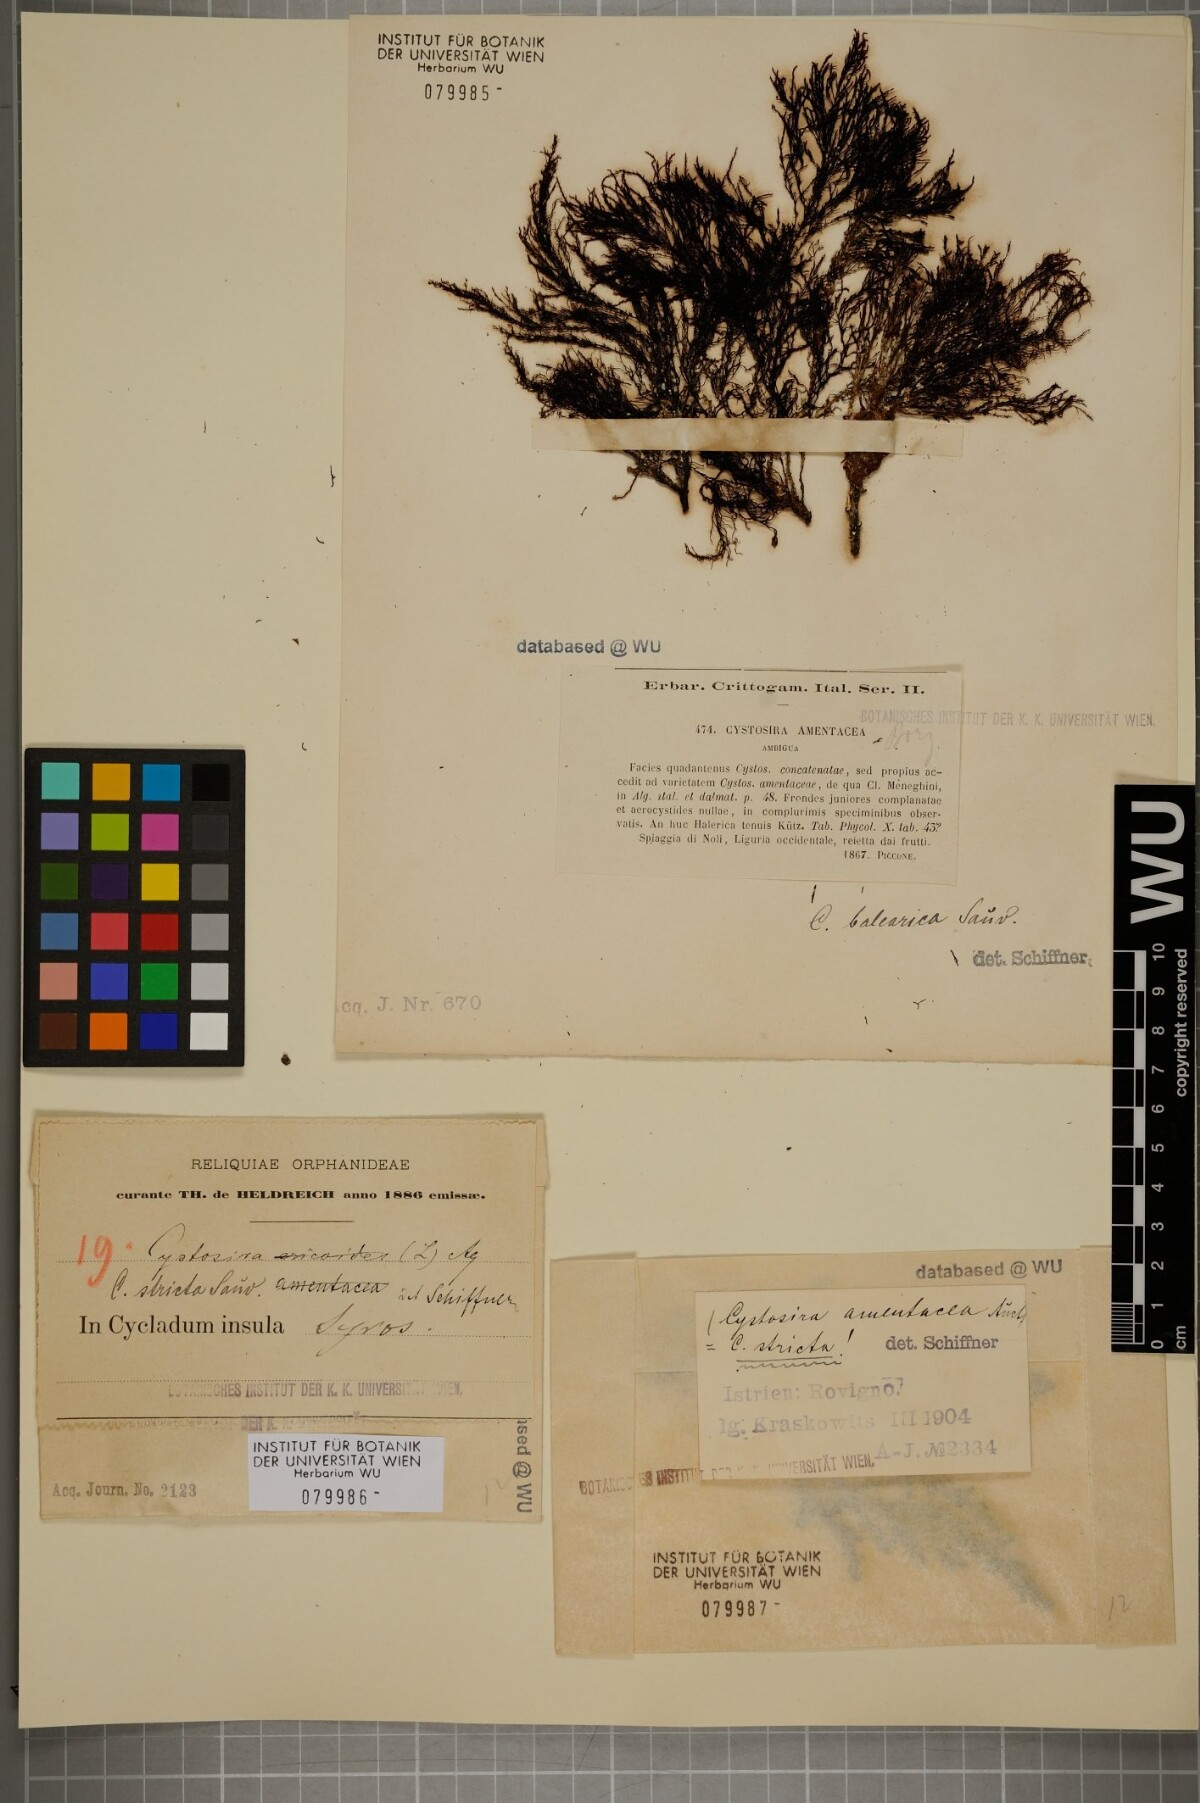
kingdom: Chromista
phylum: Ochrophyta
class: Phaeophyceae
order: Fucales
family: Sargassaceae
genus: Cystoseira
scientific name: Cystoseira Ericaria amentacea
